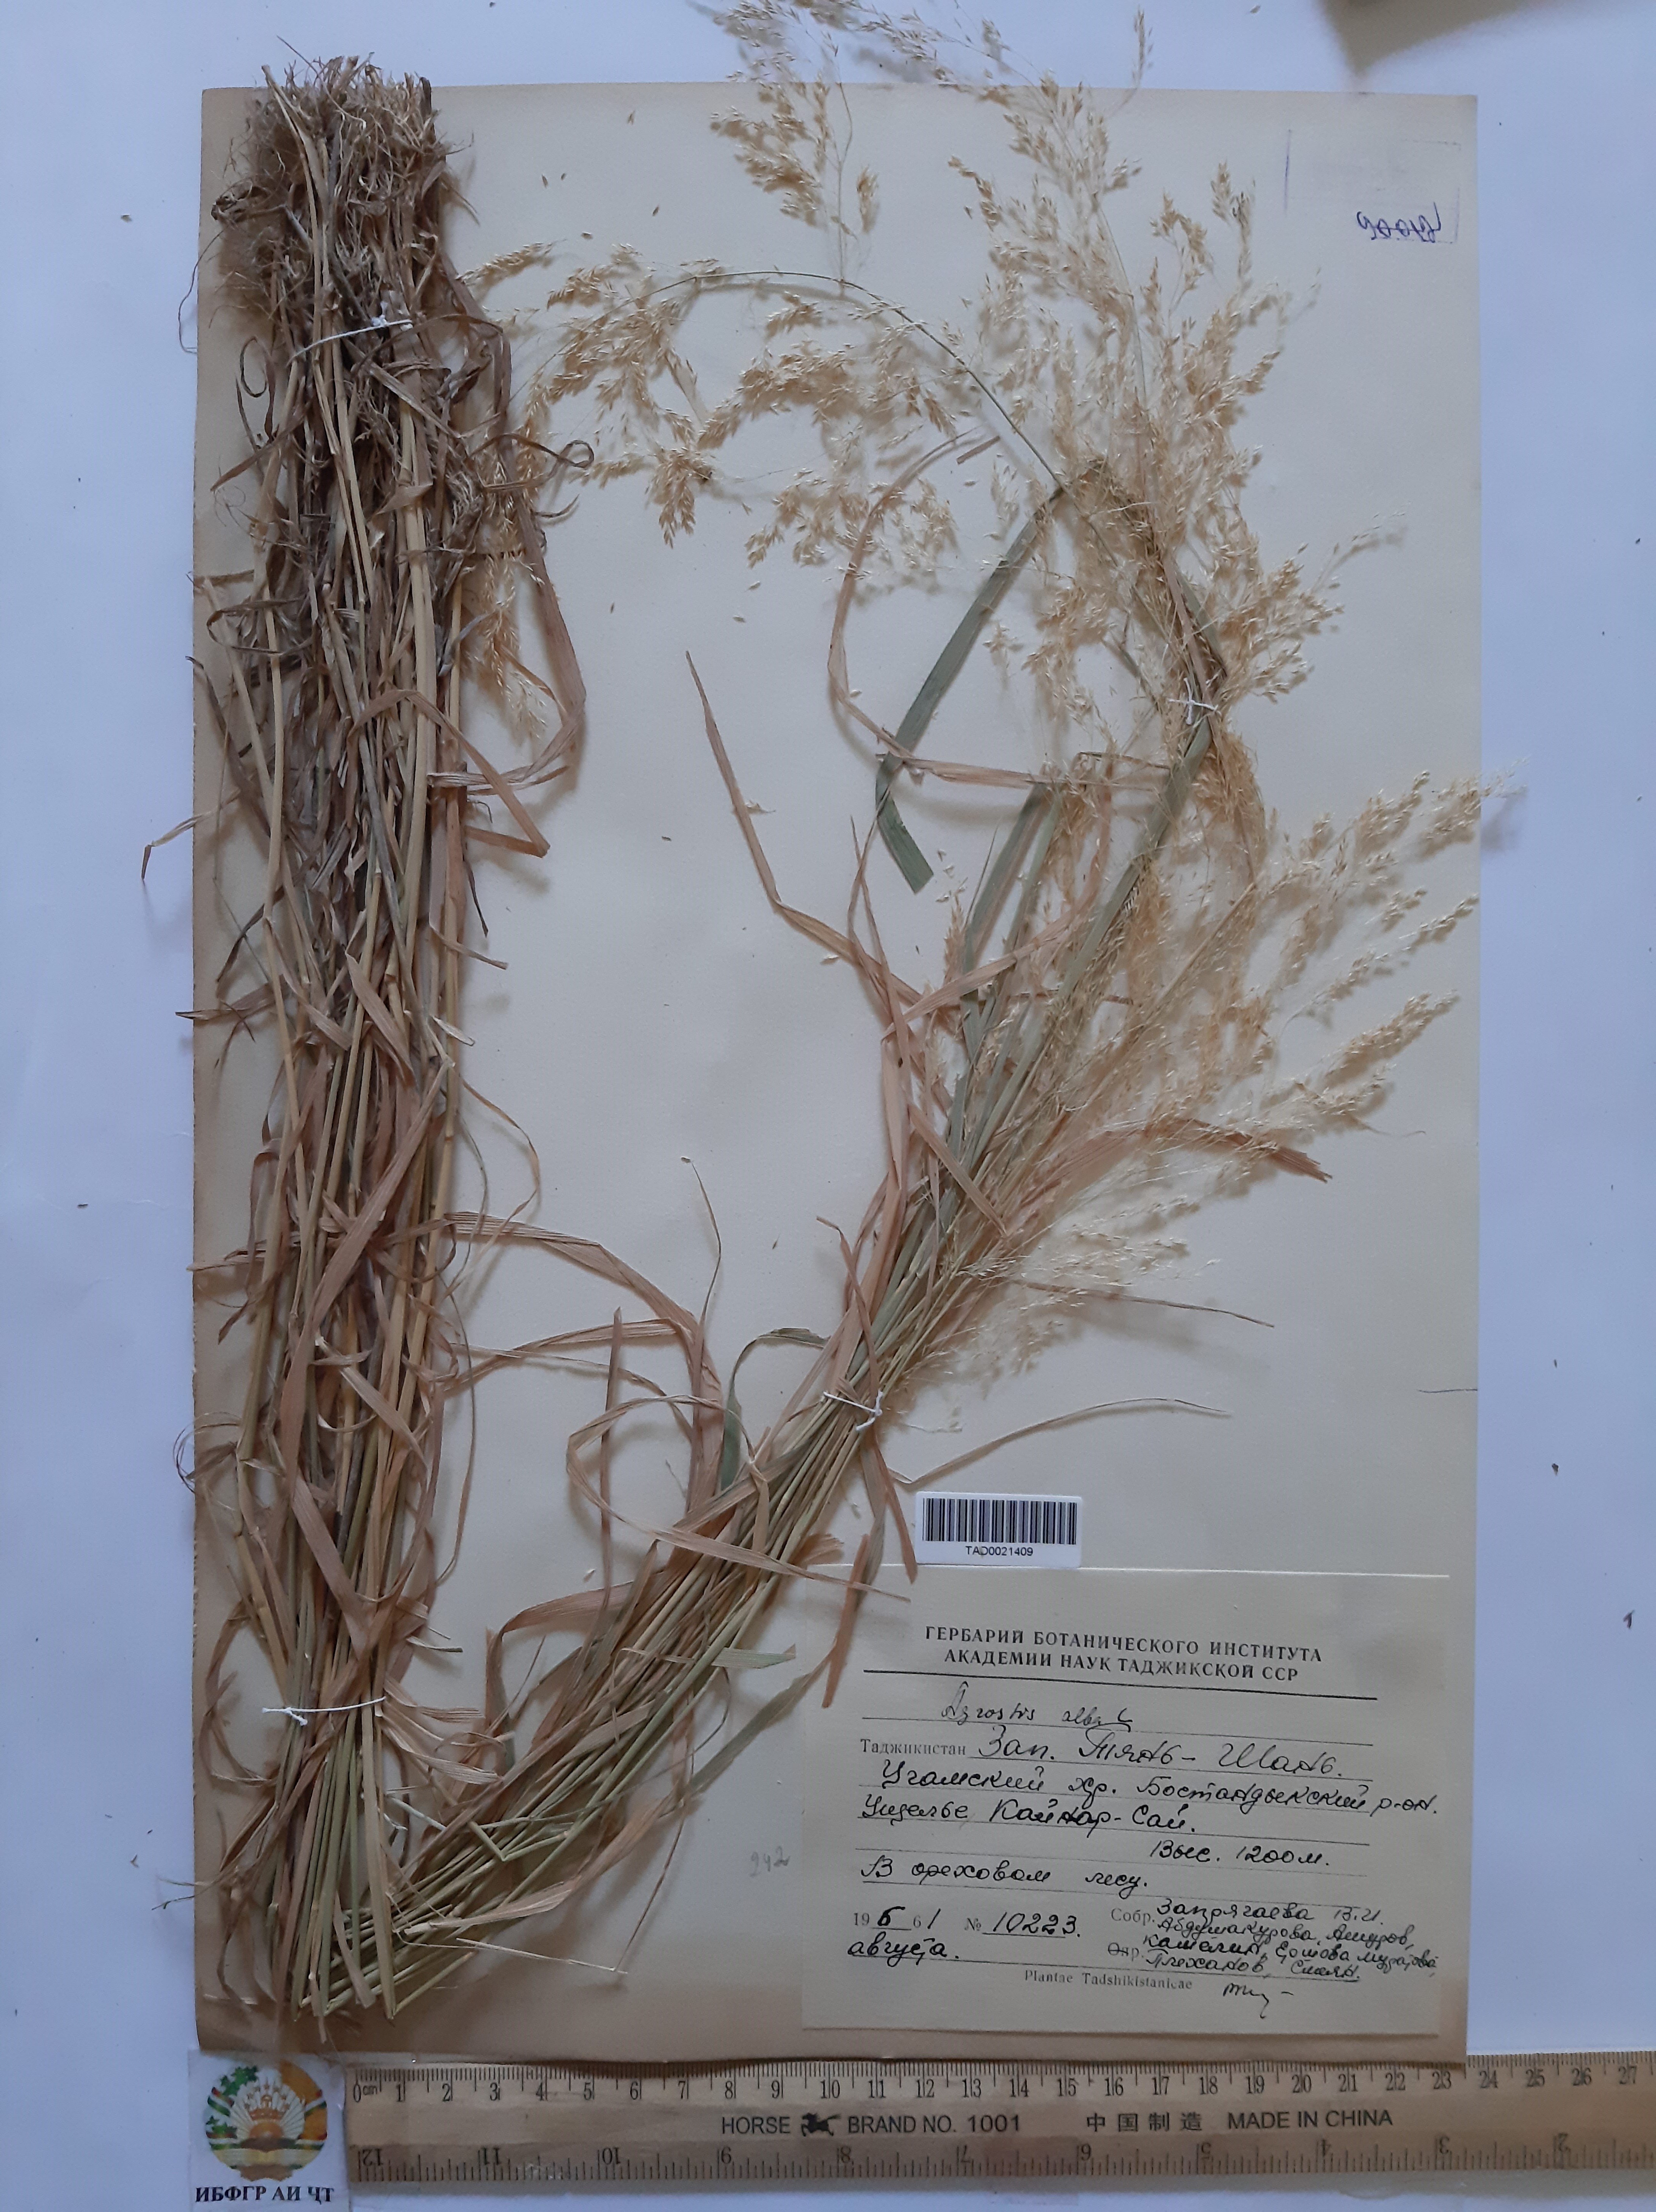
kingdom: Plantae
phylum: Tracheophyta
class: Liliopsida
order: Poales
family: Poaceae
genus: Poa
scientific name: Poa nemoralis
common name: Wood bluegrass
